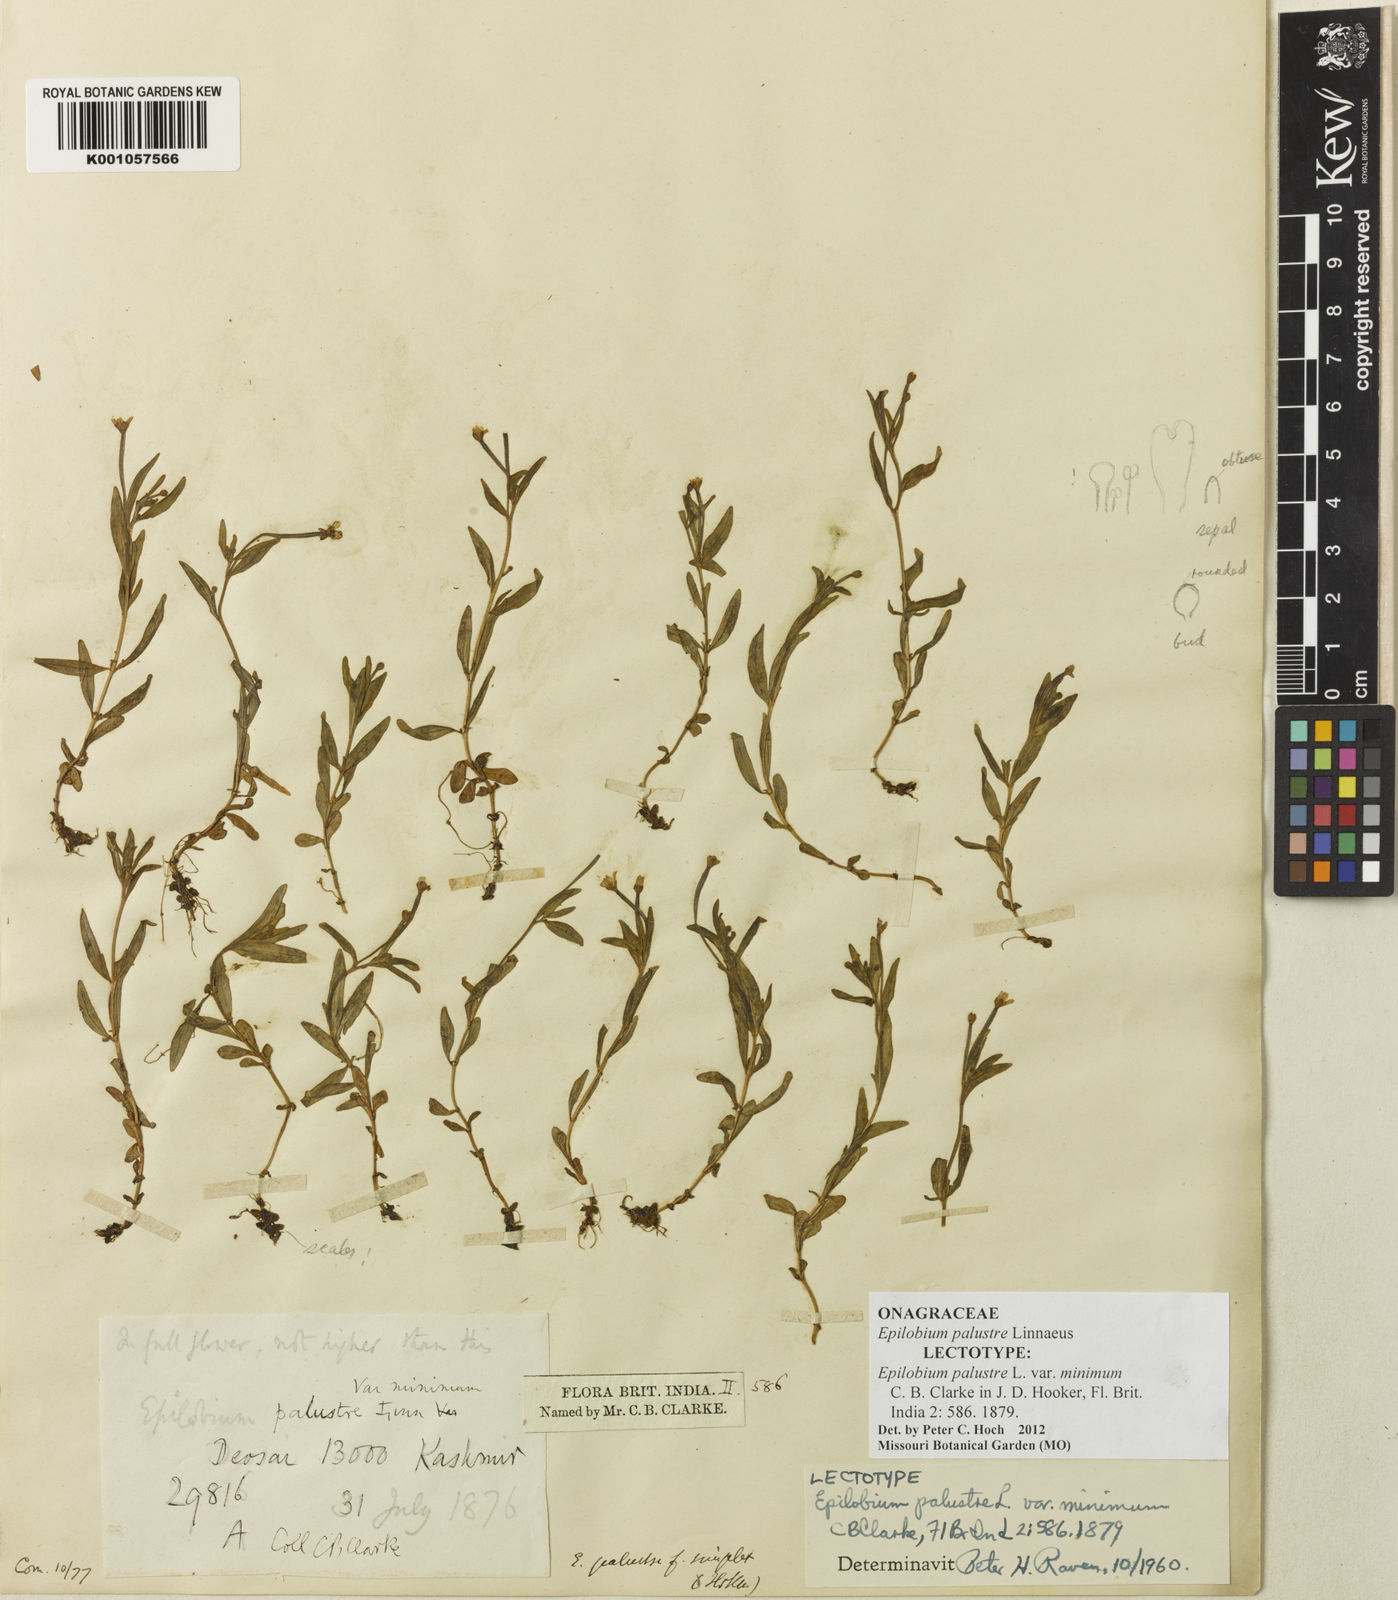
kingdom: Plantae
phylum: Tracheophyta
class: Magnoliopsida
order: Myrtales
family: Onagraceae
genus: Epilobium
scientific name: Epilobium palustre
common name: Marsh willowherb
